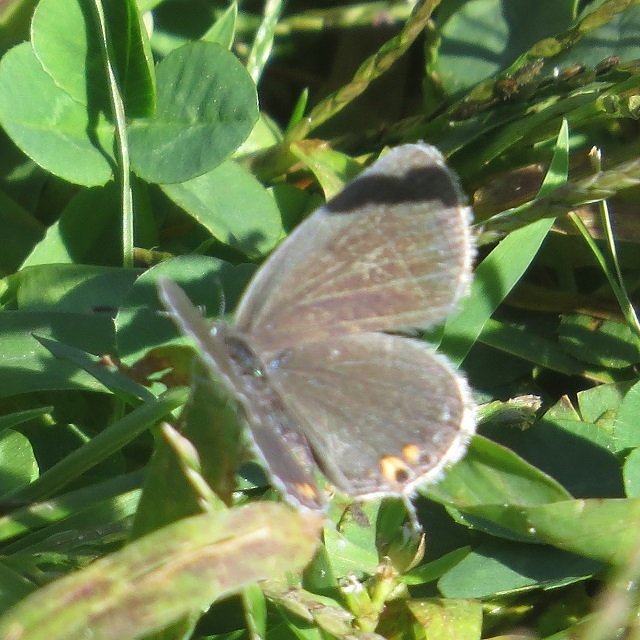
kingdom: Animalia
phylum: Arthropoda
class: Insecta
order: Lepidoptera
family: Lycaenidae
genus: Elkalyce
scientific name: Elkalyce comyntas
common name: Eastern Tailed-Blue
